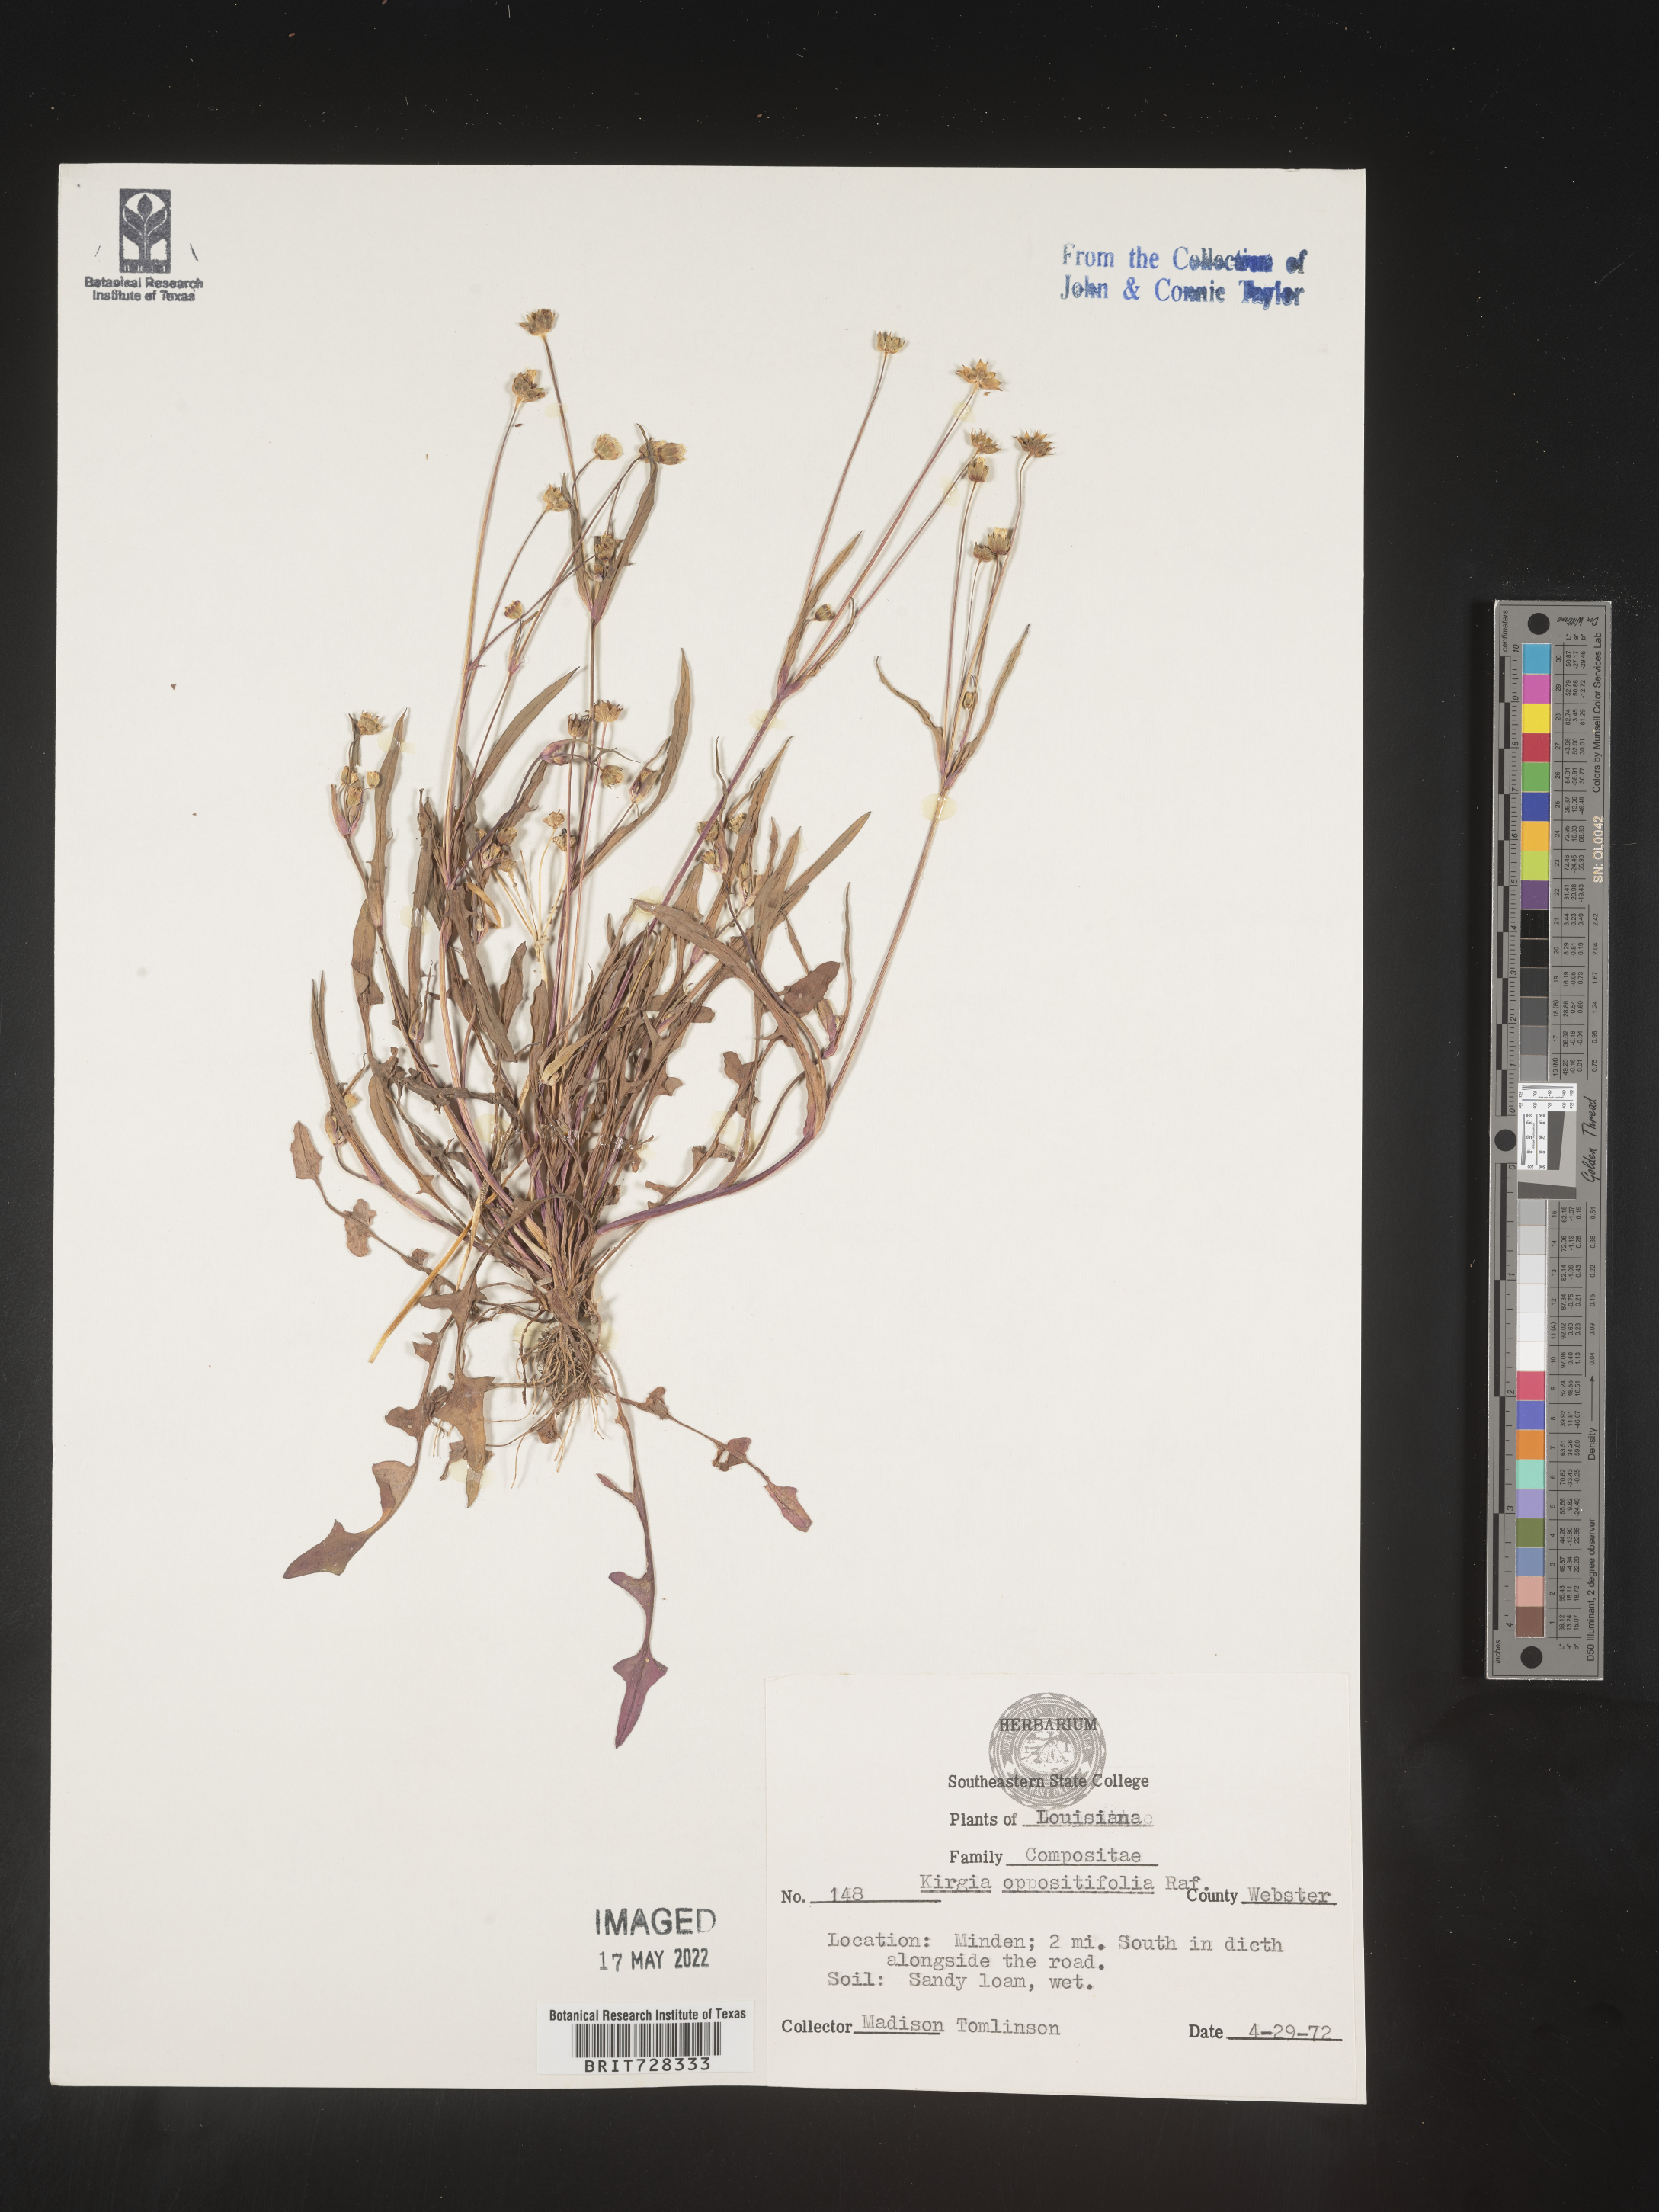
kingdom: Plantae
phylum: Tracheophyta
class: Magnoliopsida
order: Asterales
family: Asteraceae
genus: Krigia
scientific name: Krigia caespitosa
